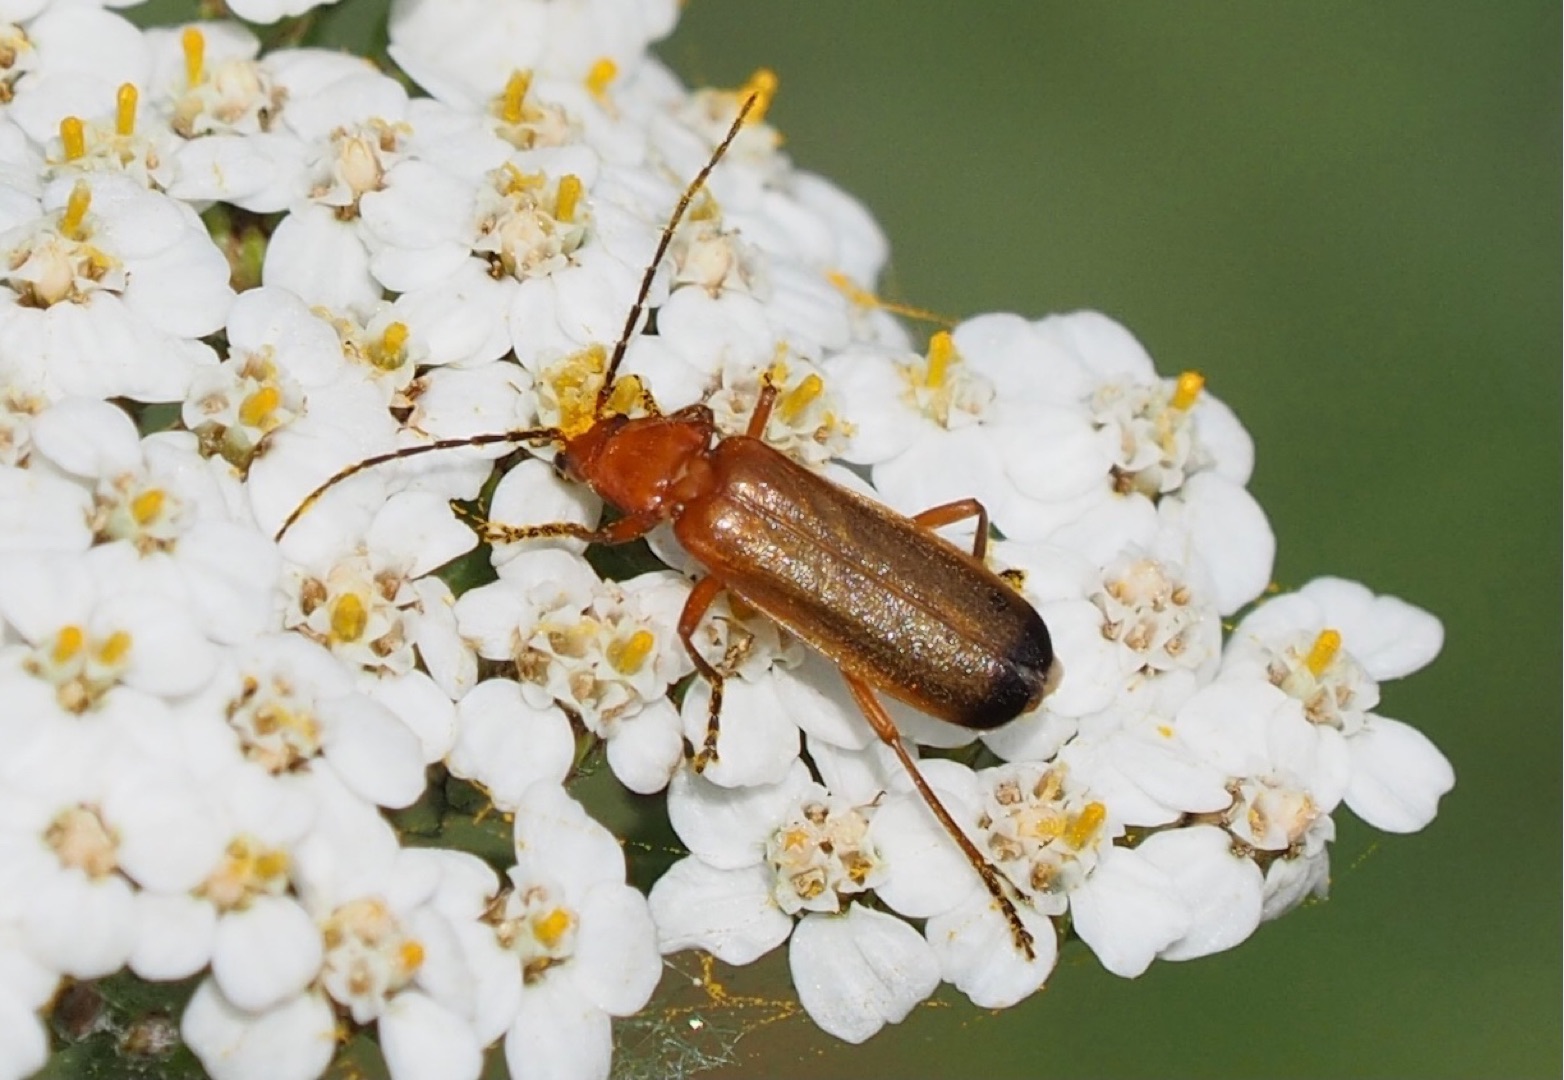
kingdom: Animalia
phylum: Arthropoda
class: Insecta
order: Coleoptera
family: Cantharidae
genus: Rhagonycha
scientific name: Rhagonycha fulva
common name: Præstebille
